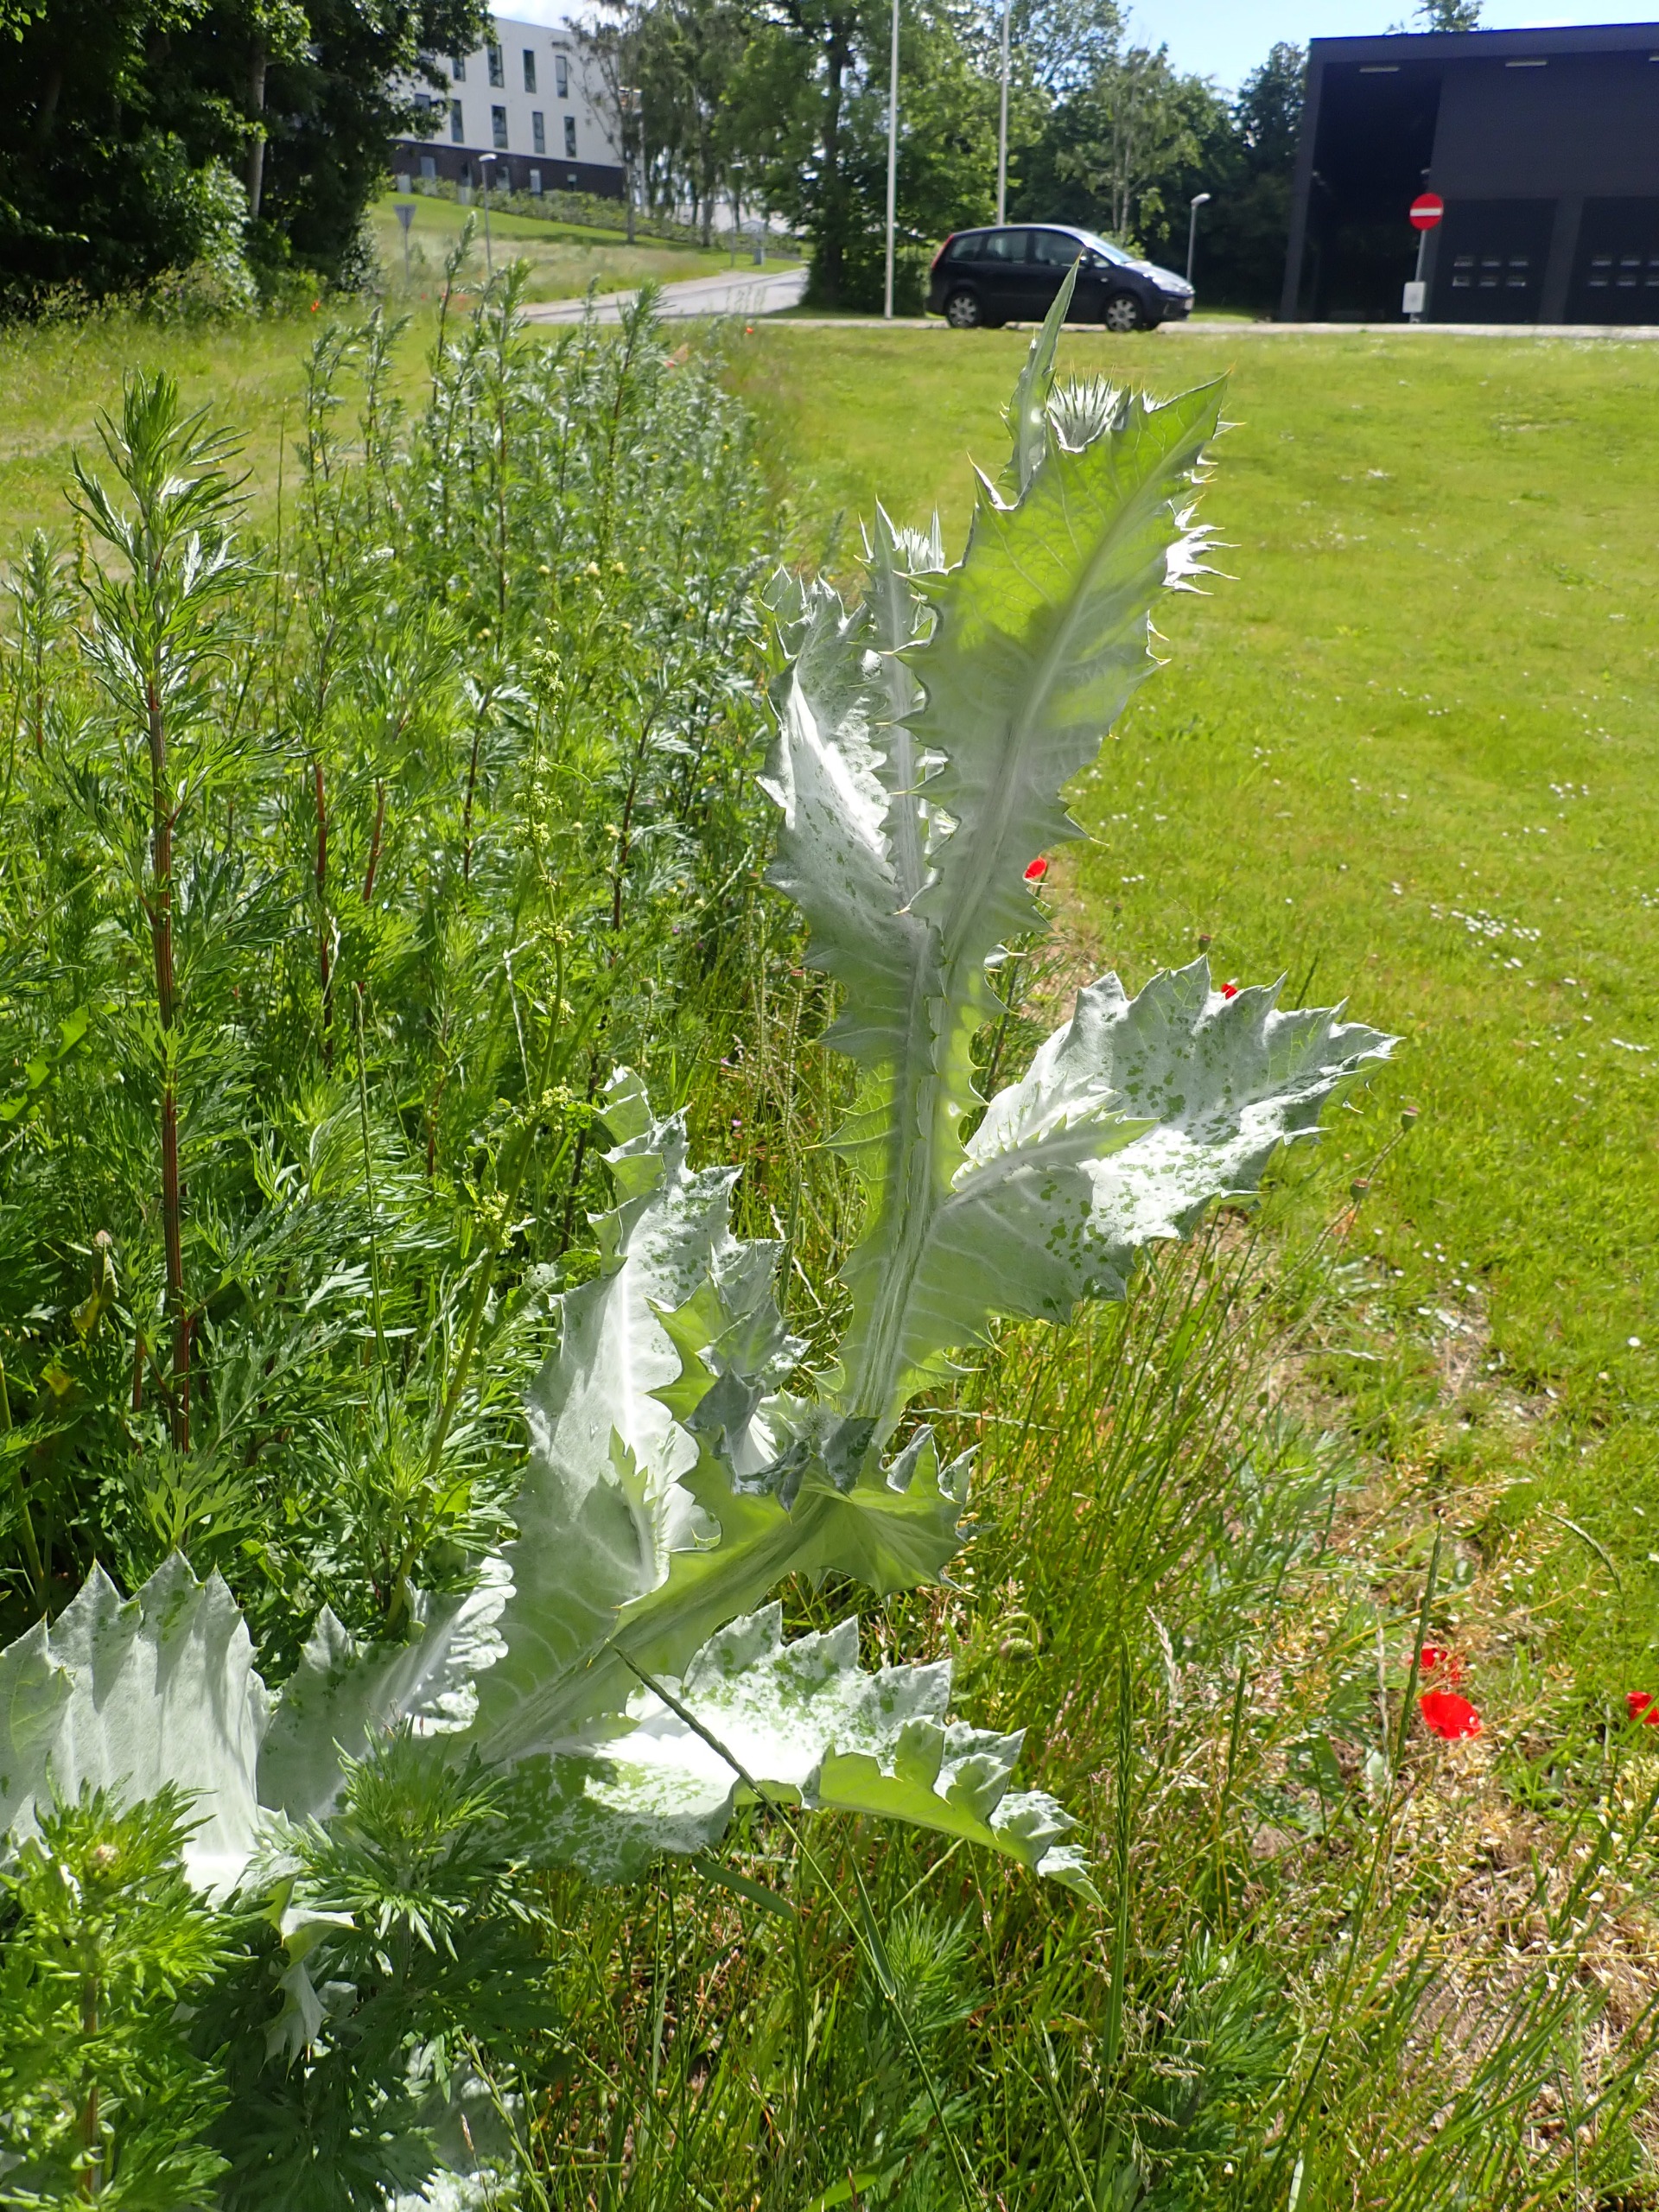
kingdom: Plantae
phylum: Tracheophyta
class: Magnoliopsida
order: Asterales
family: Asteraceae
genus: Onopordum
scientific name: Onopordum acanthium
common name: Æselfoder
